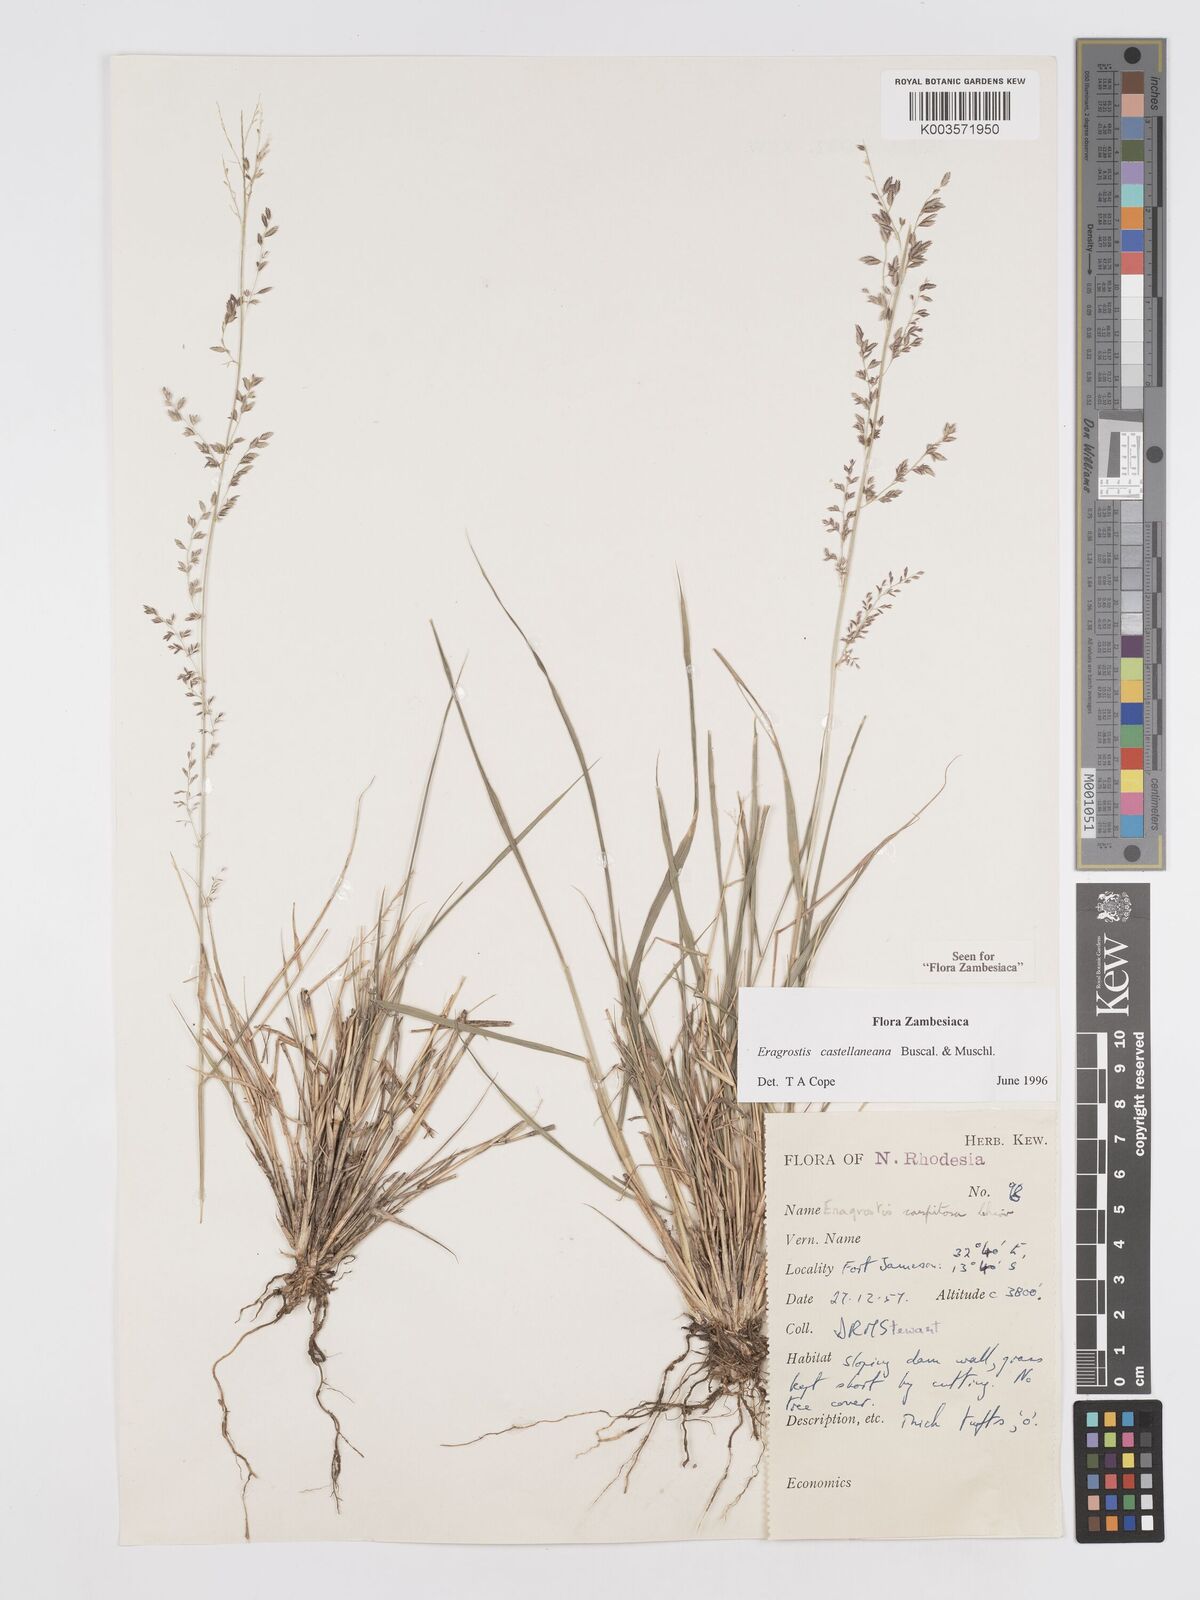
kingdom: Plantae
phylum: Tracheophyta
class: Liliopsida
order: Poales
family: Poaceae
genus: Eragrostis
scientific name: Eragrostis castellaneana
